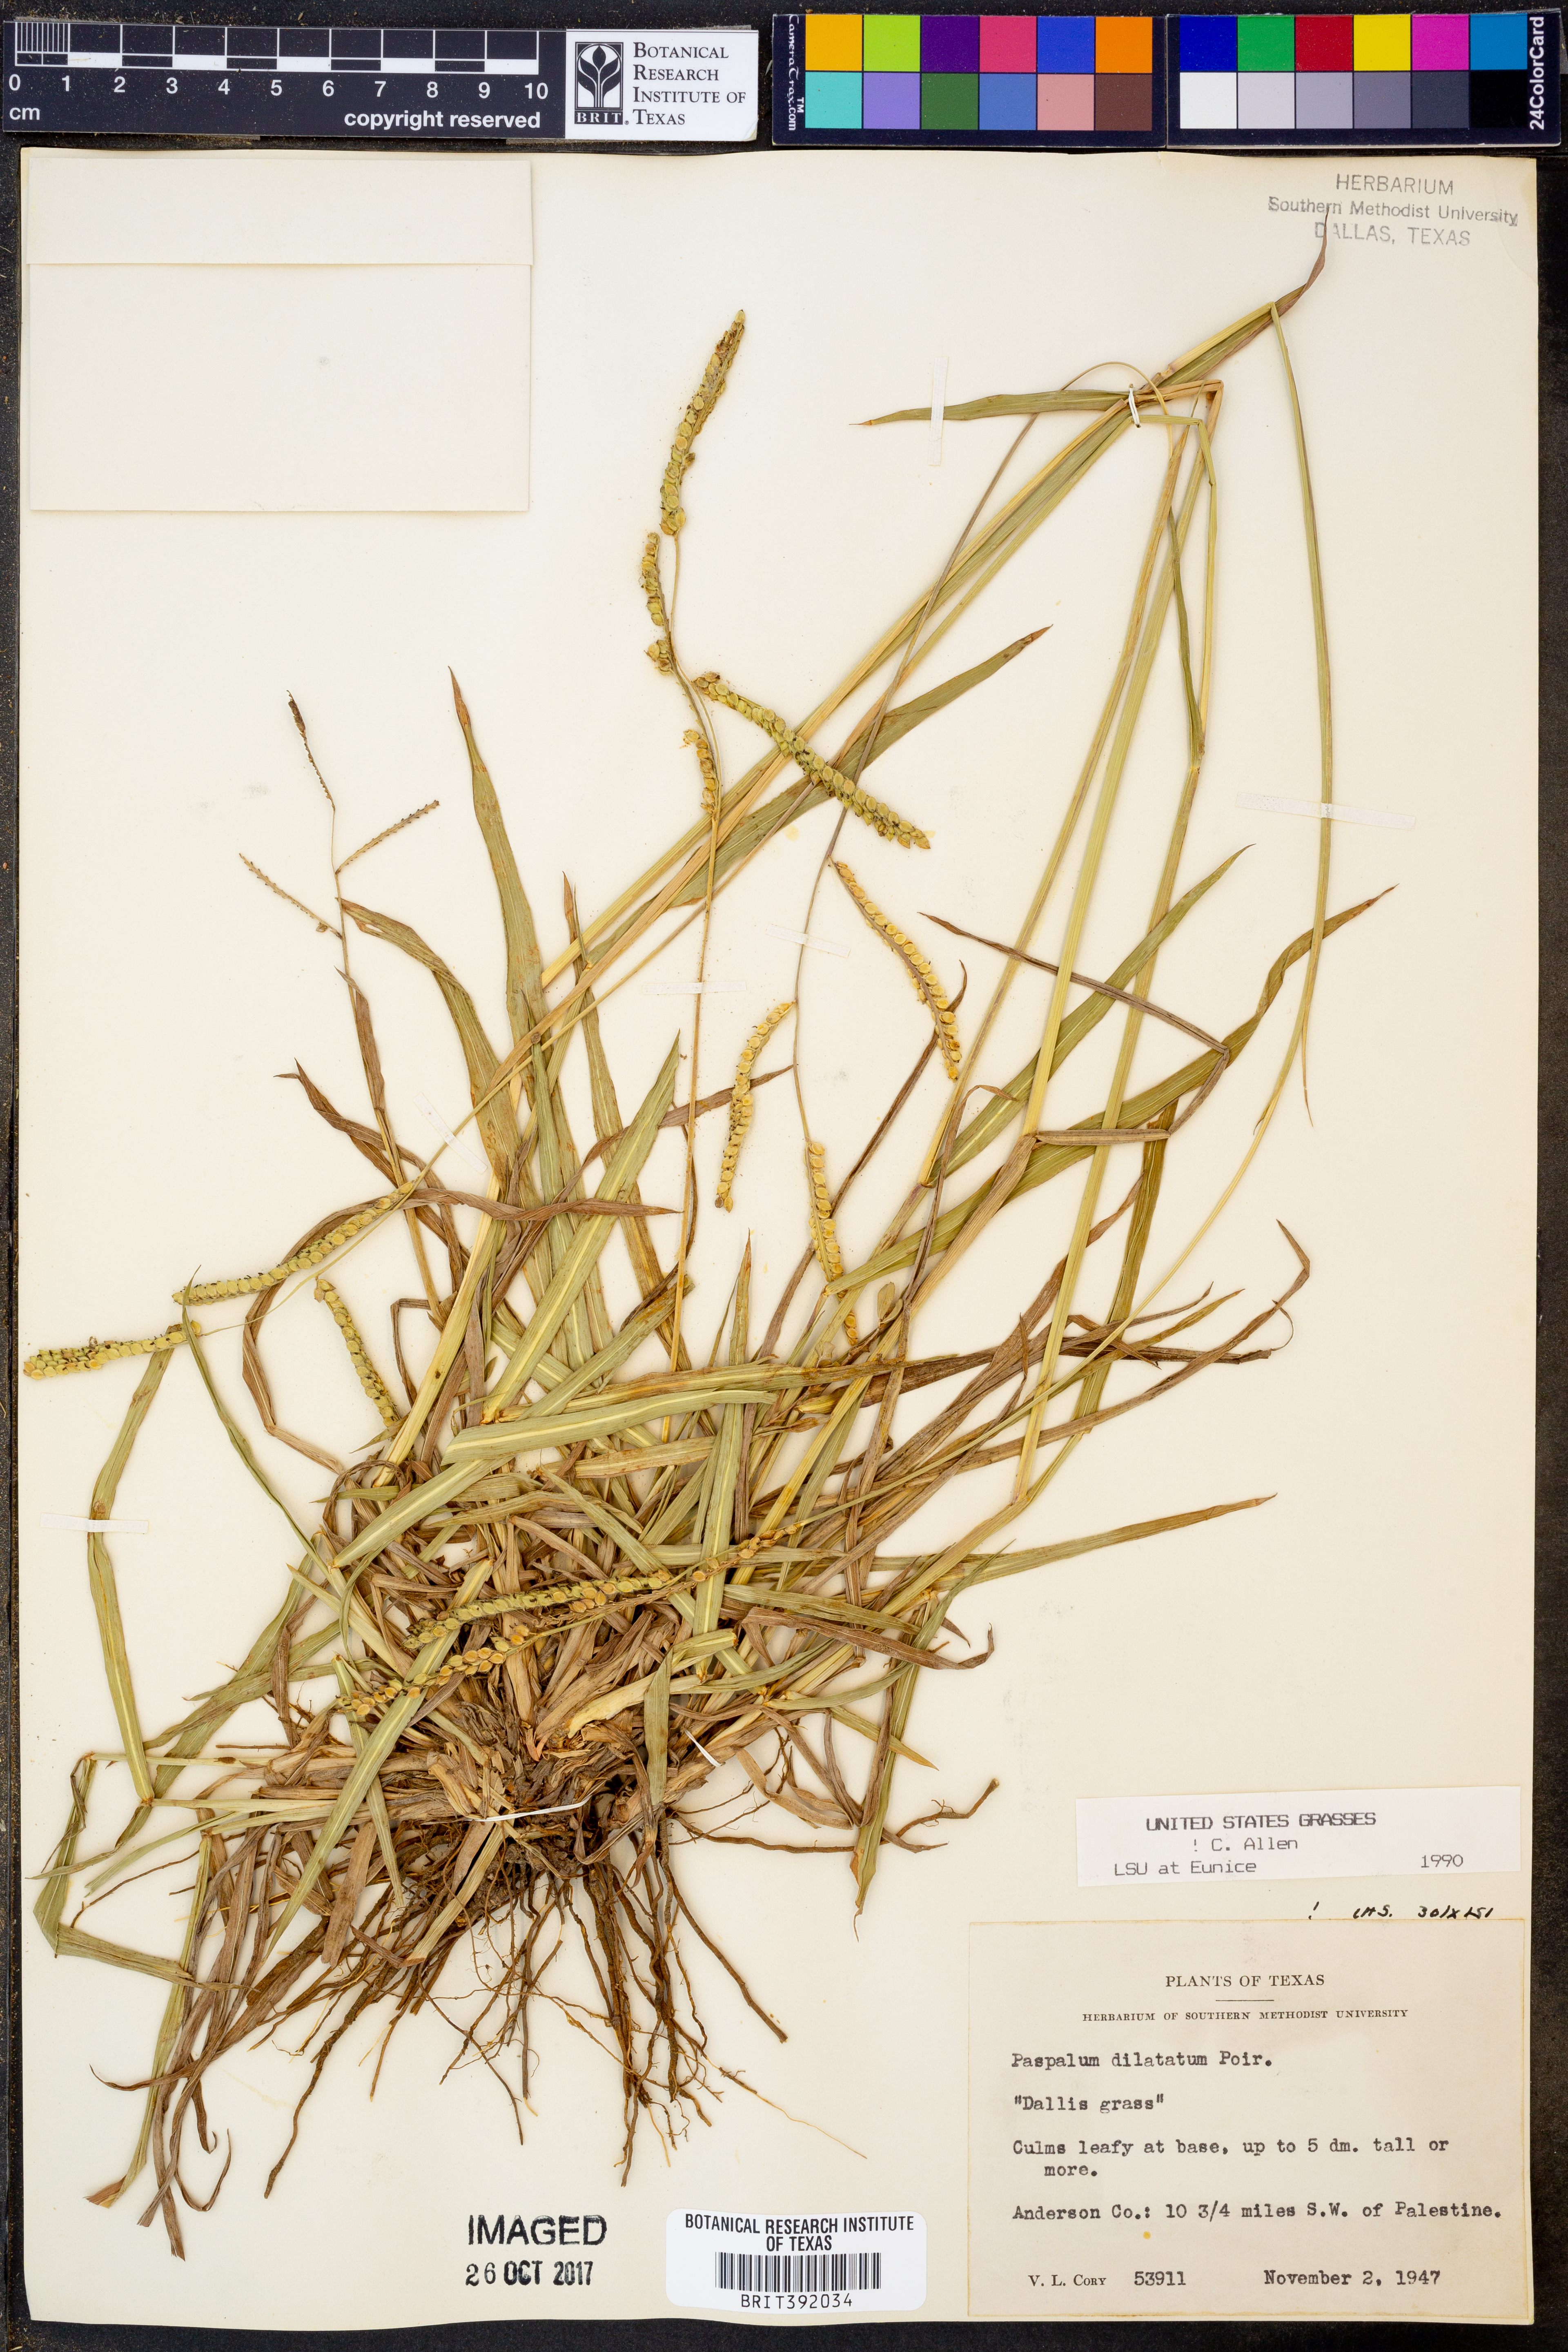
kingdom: Plantae
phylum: Tracheophyta
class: Liliopsida
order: Poales
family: Poaceae
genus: Paspalum
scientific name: Paspalum dilatatum
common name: Dallisgrass
